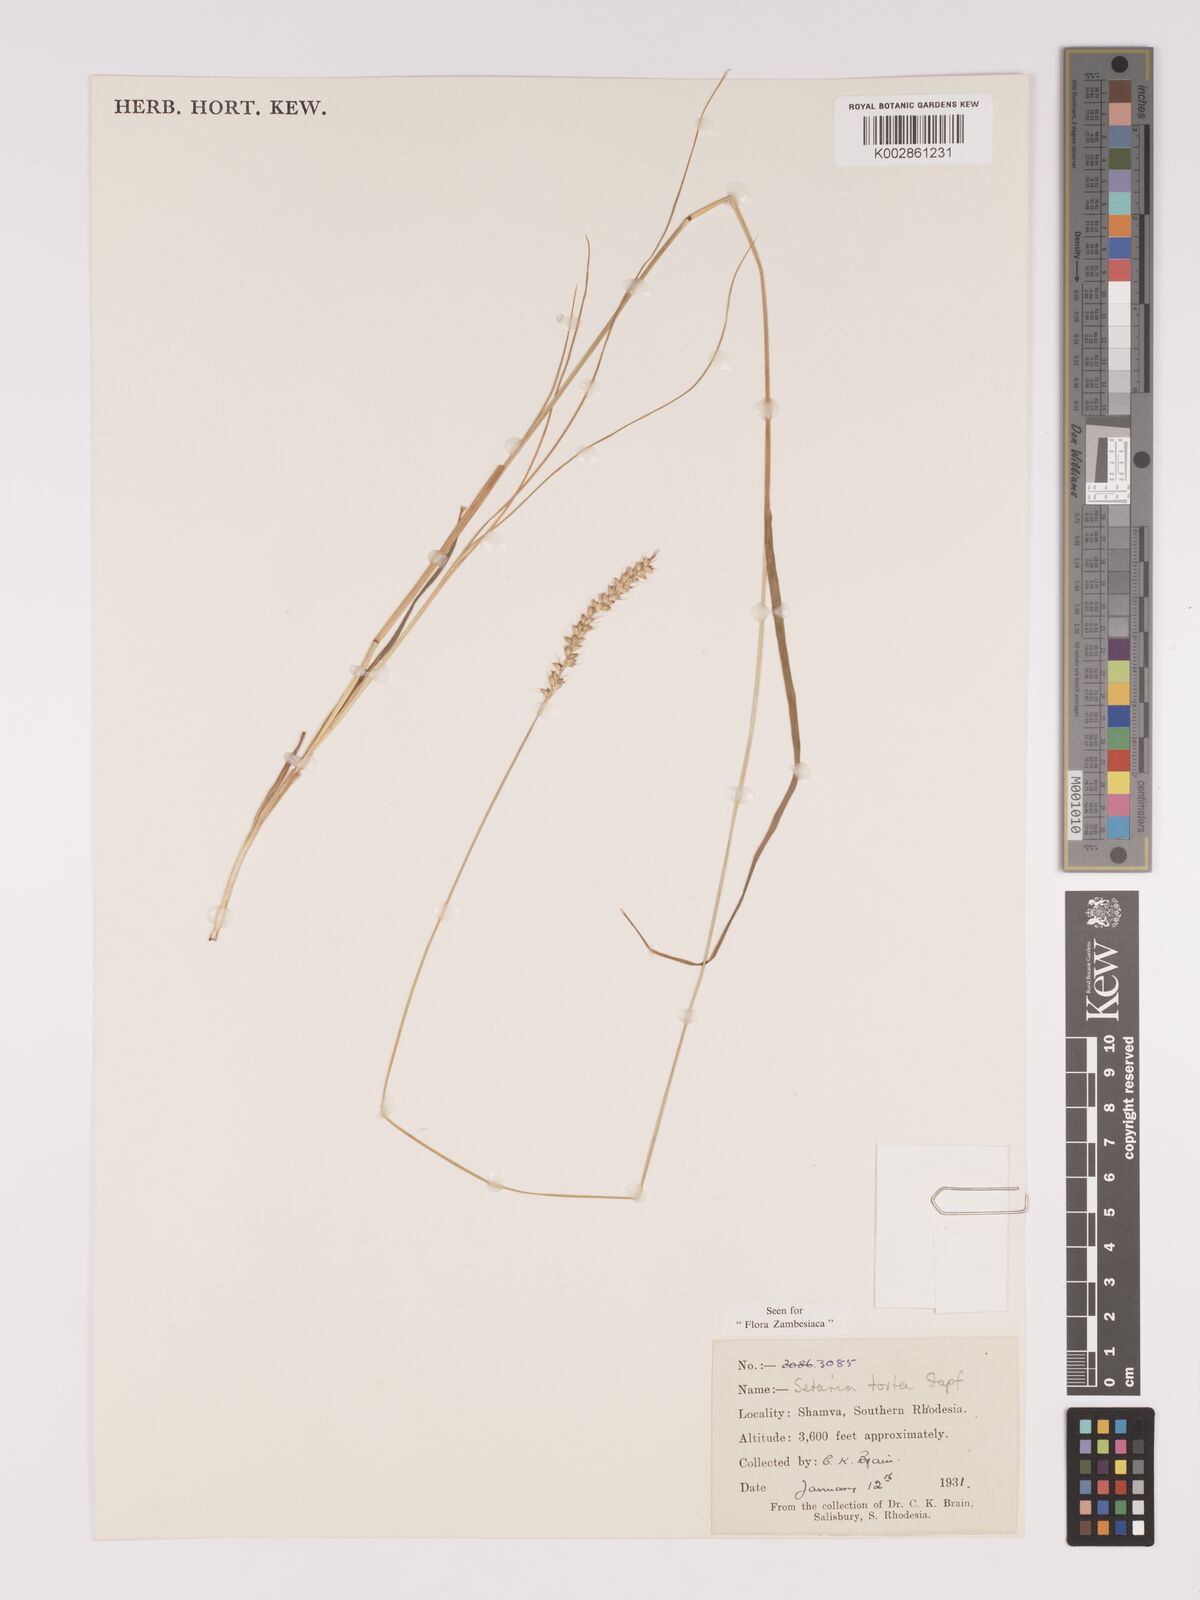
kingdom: Plantae
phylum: Tracheophyta
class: Liliopsida
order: Poales
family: Poaceae
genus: Setaria
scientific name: Setaria sphacelata
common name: African bristlegrass
